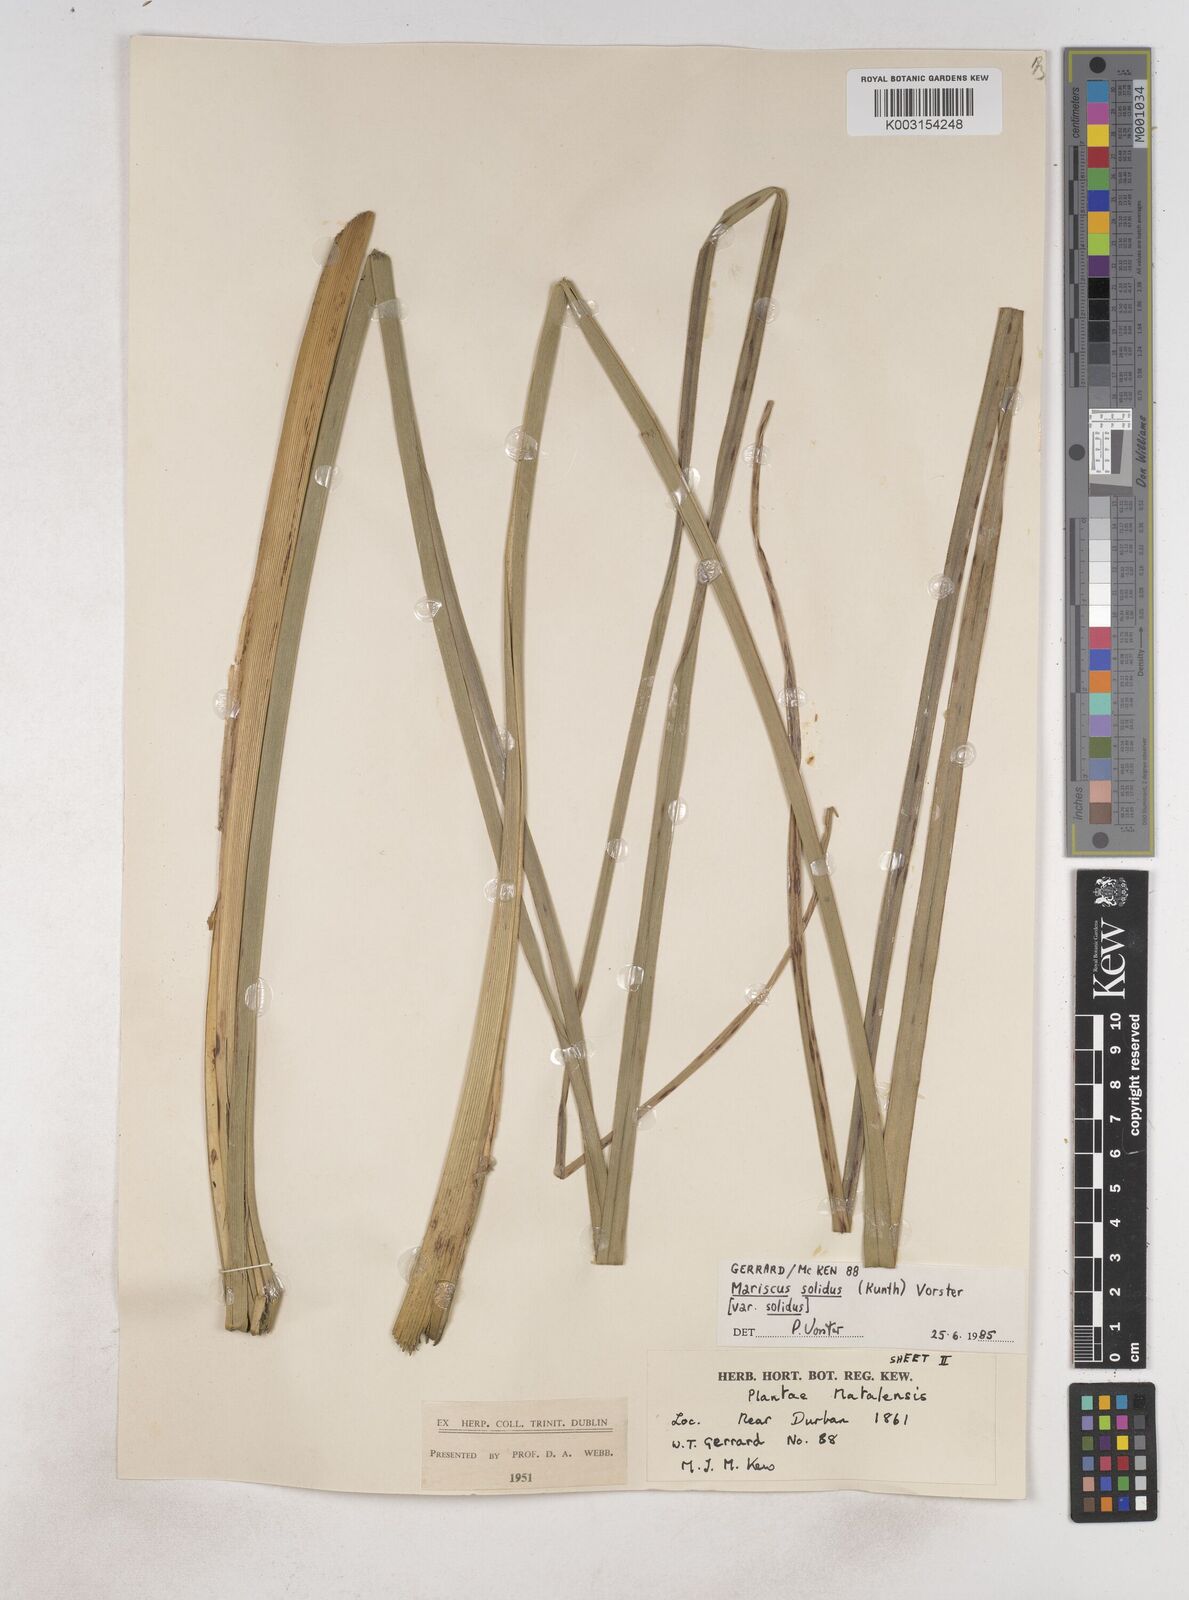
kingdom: Plantae
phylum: Tracheophyta
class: Liliopsida
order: Poales
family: Cyperaceae
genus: Cyperus
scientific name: Cyperus congestus
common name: Dense flat sedge
